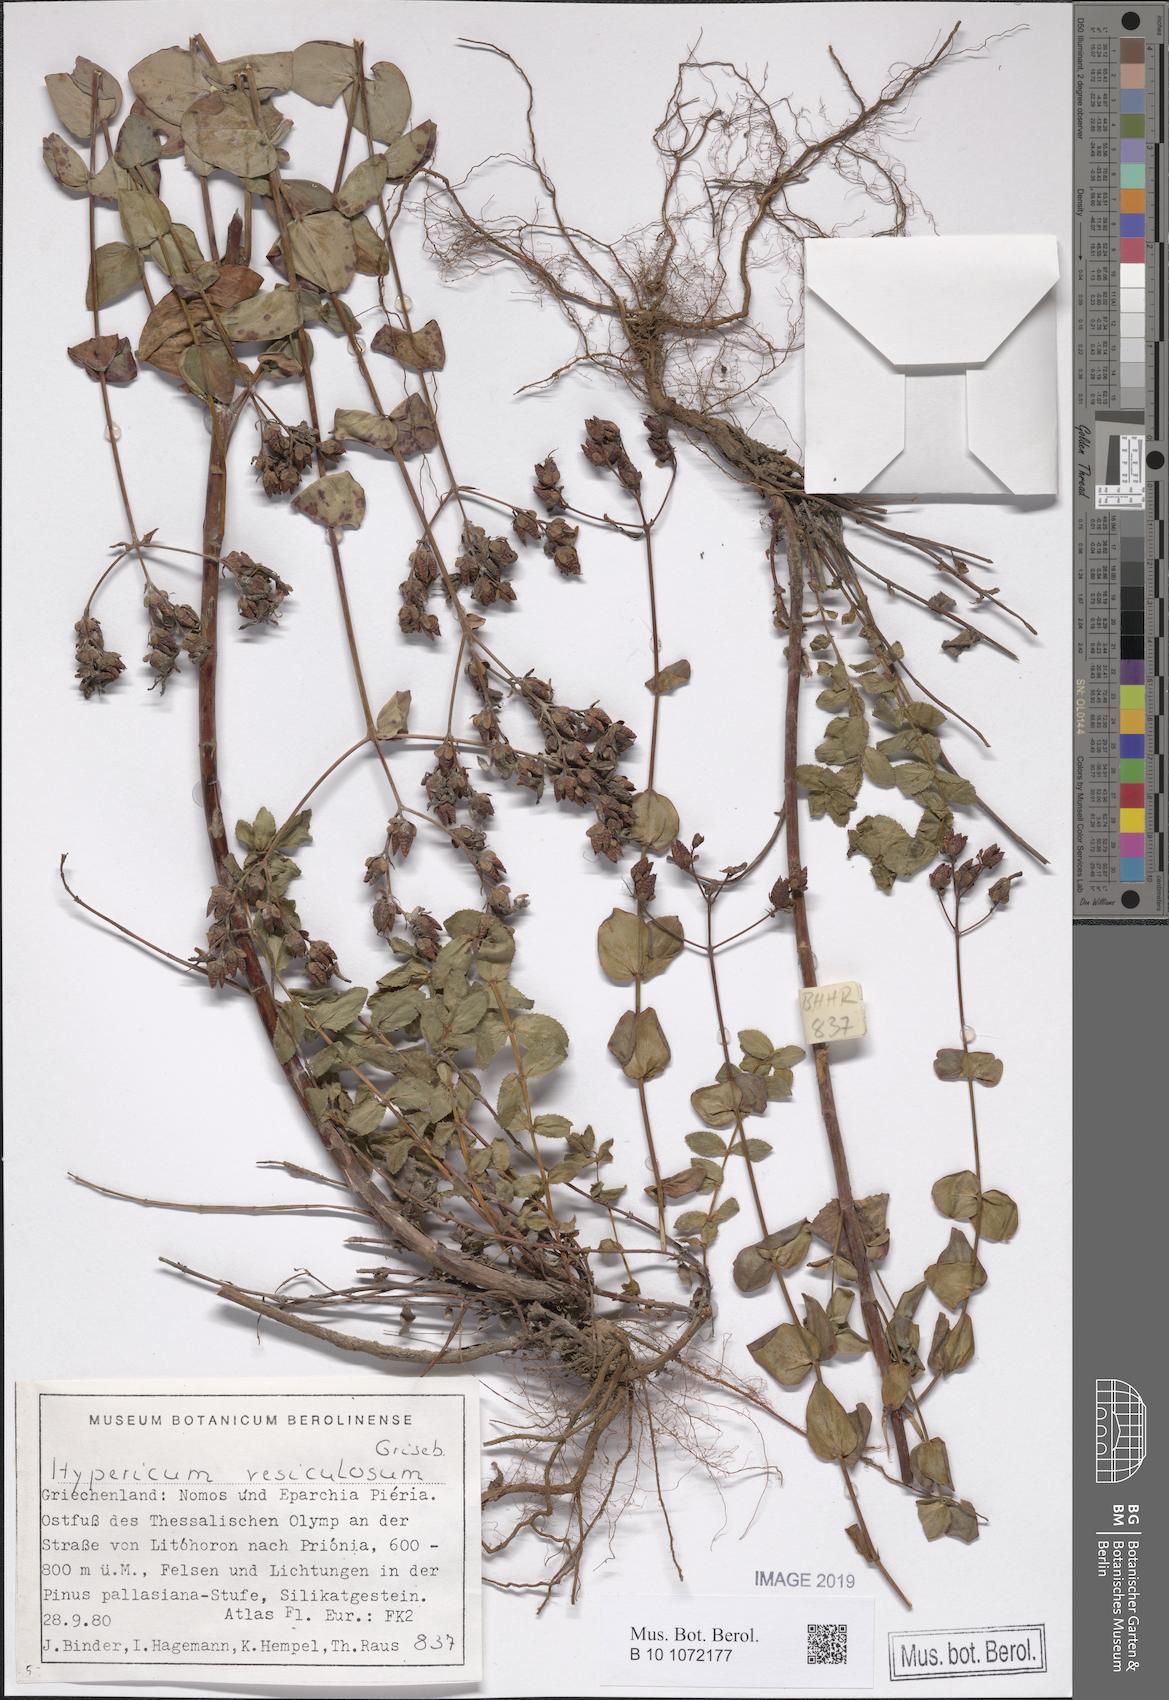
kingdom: Plantae
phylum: Tracheophyta
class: Magnoliopsida
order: Malpighiales
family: Hypericaceae
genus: Hypericum
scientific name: Hypericum vesiculosum
